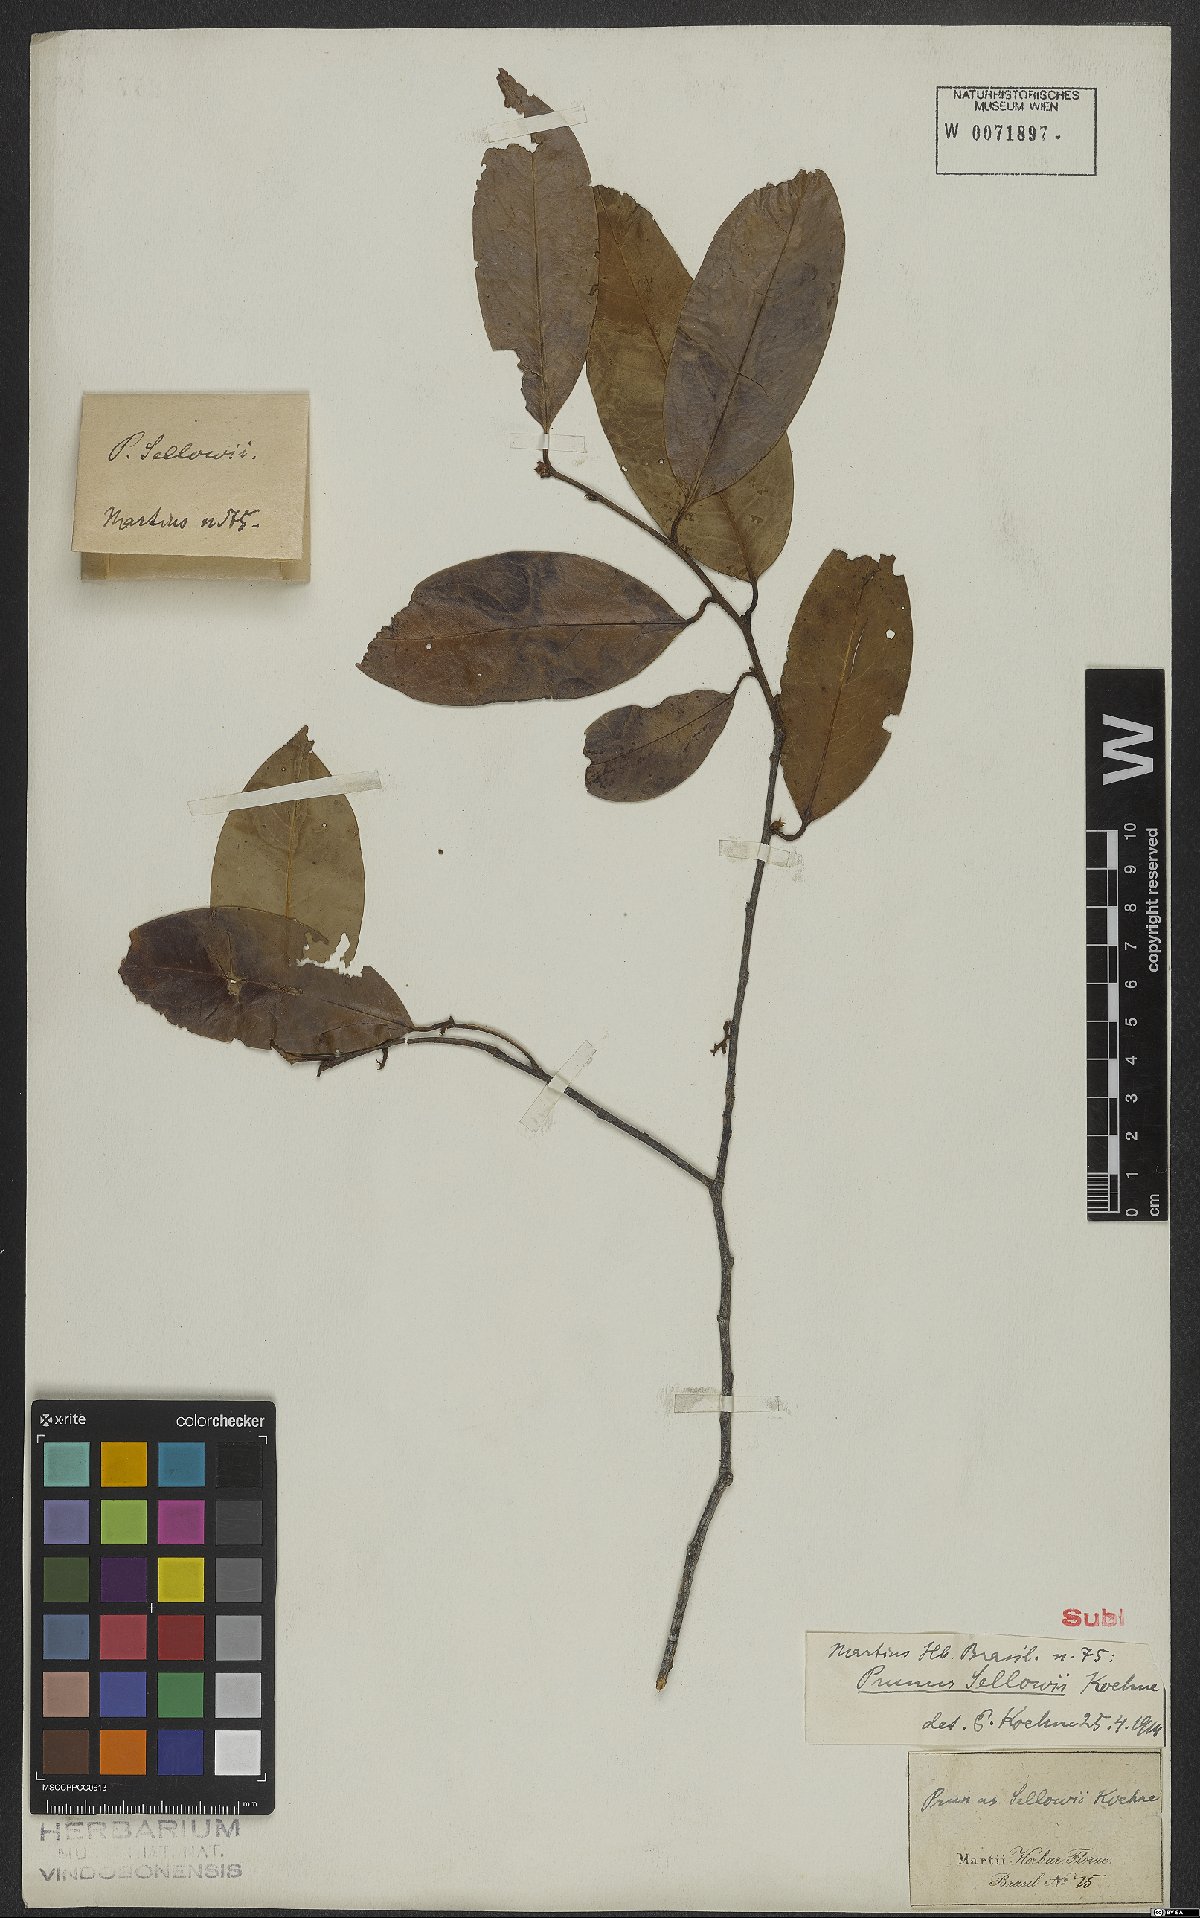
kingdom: Plantae
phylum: Tracheophyta
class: Magnoliopsida
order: Rosales
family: Rosaceae
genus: Prunus
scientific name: Prunus reflexa
